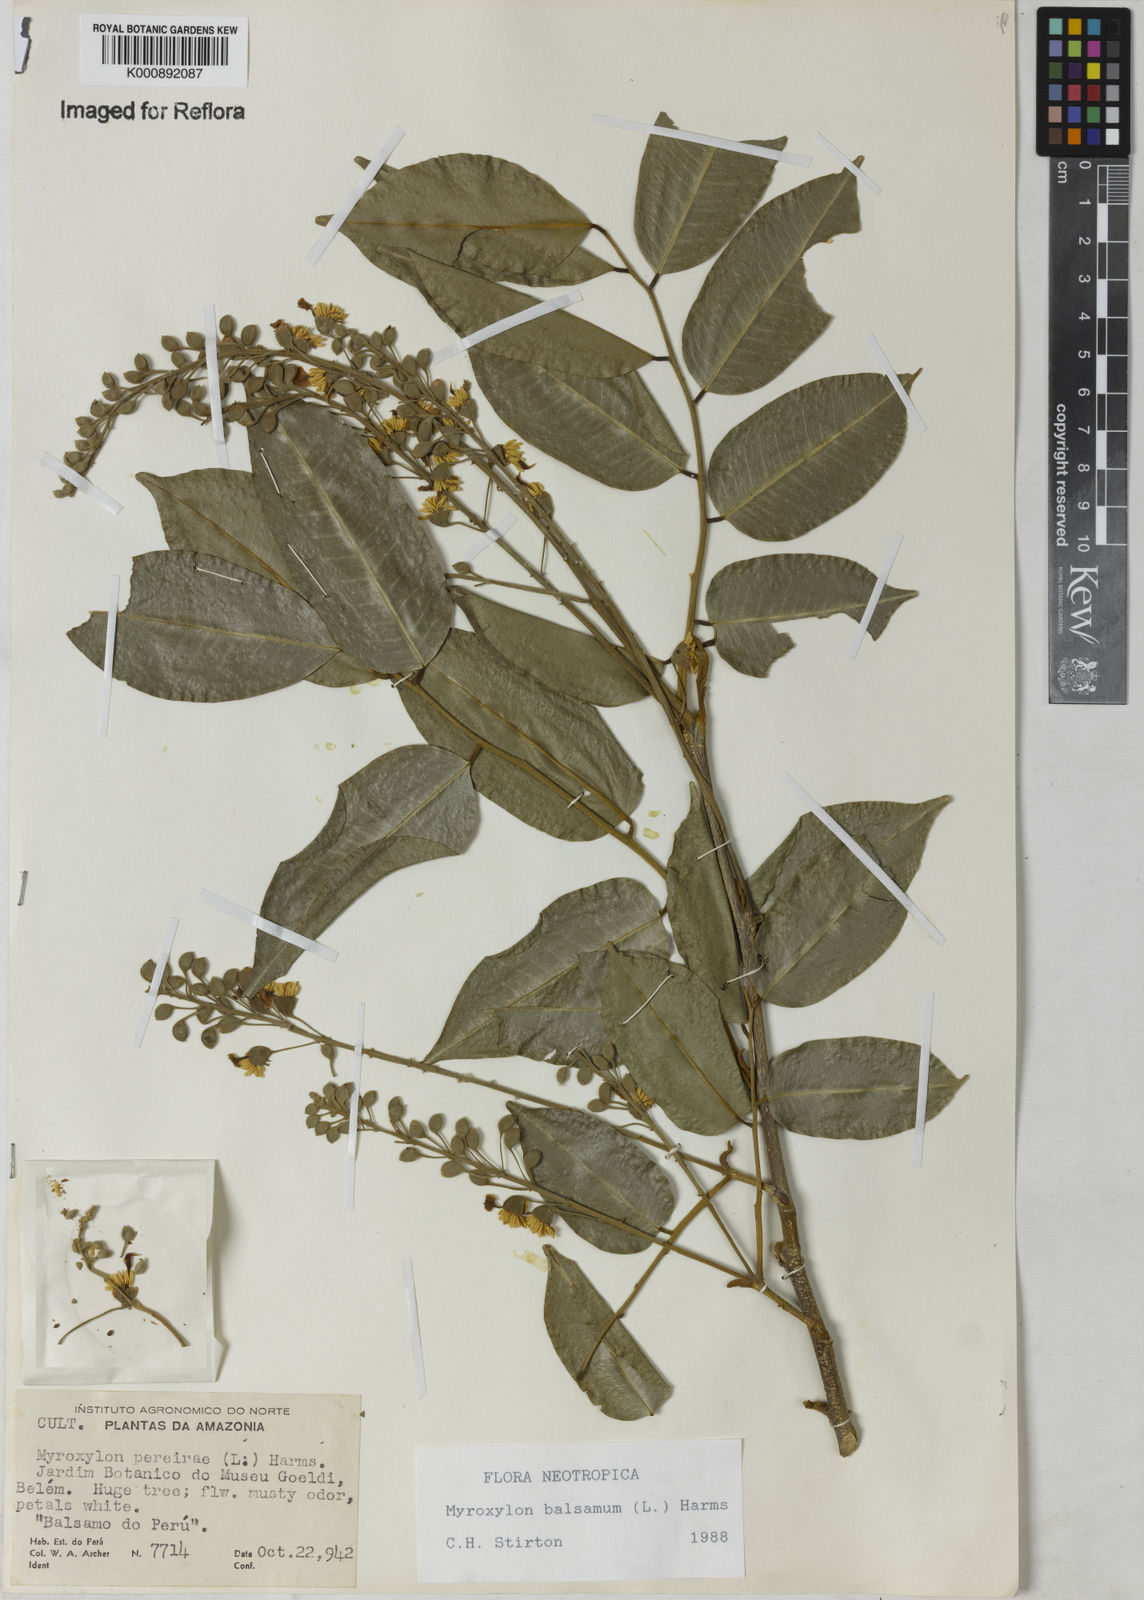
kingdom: Plantae
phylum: Tracheophyta
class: Magnoliopsida
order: Fabales
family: Fabaceae
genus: Myroxylon
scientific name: Myroxylon balsamum
